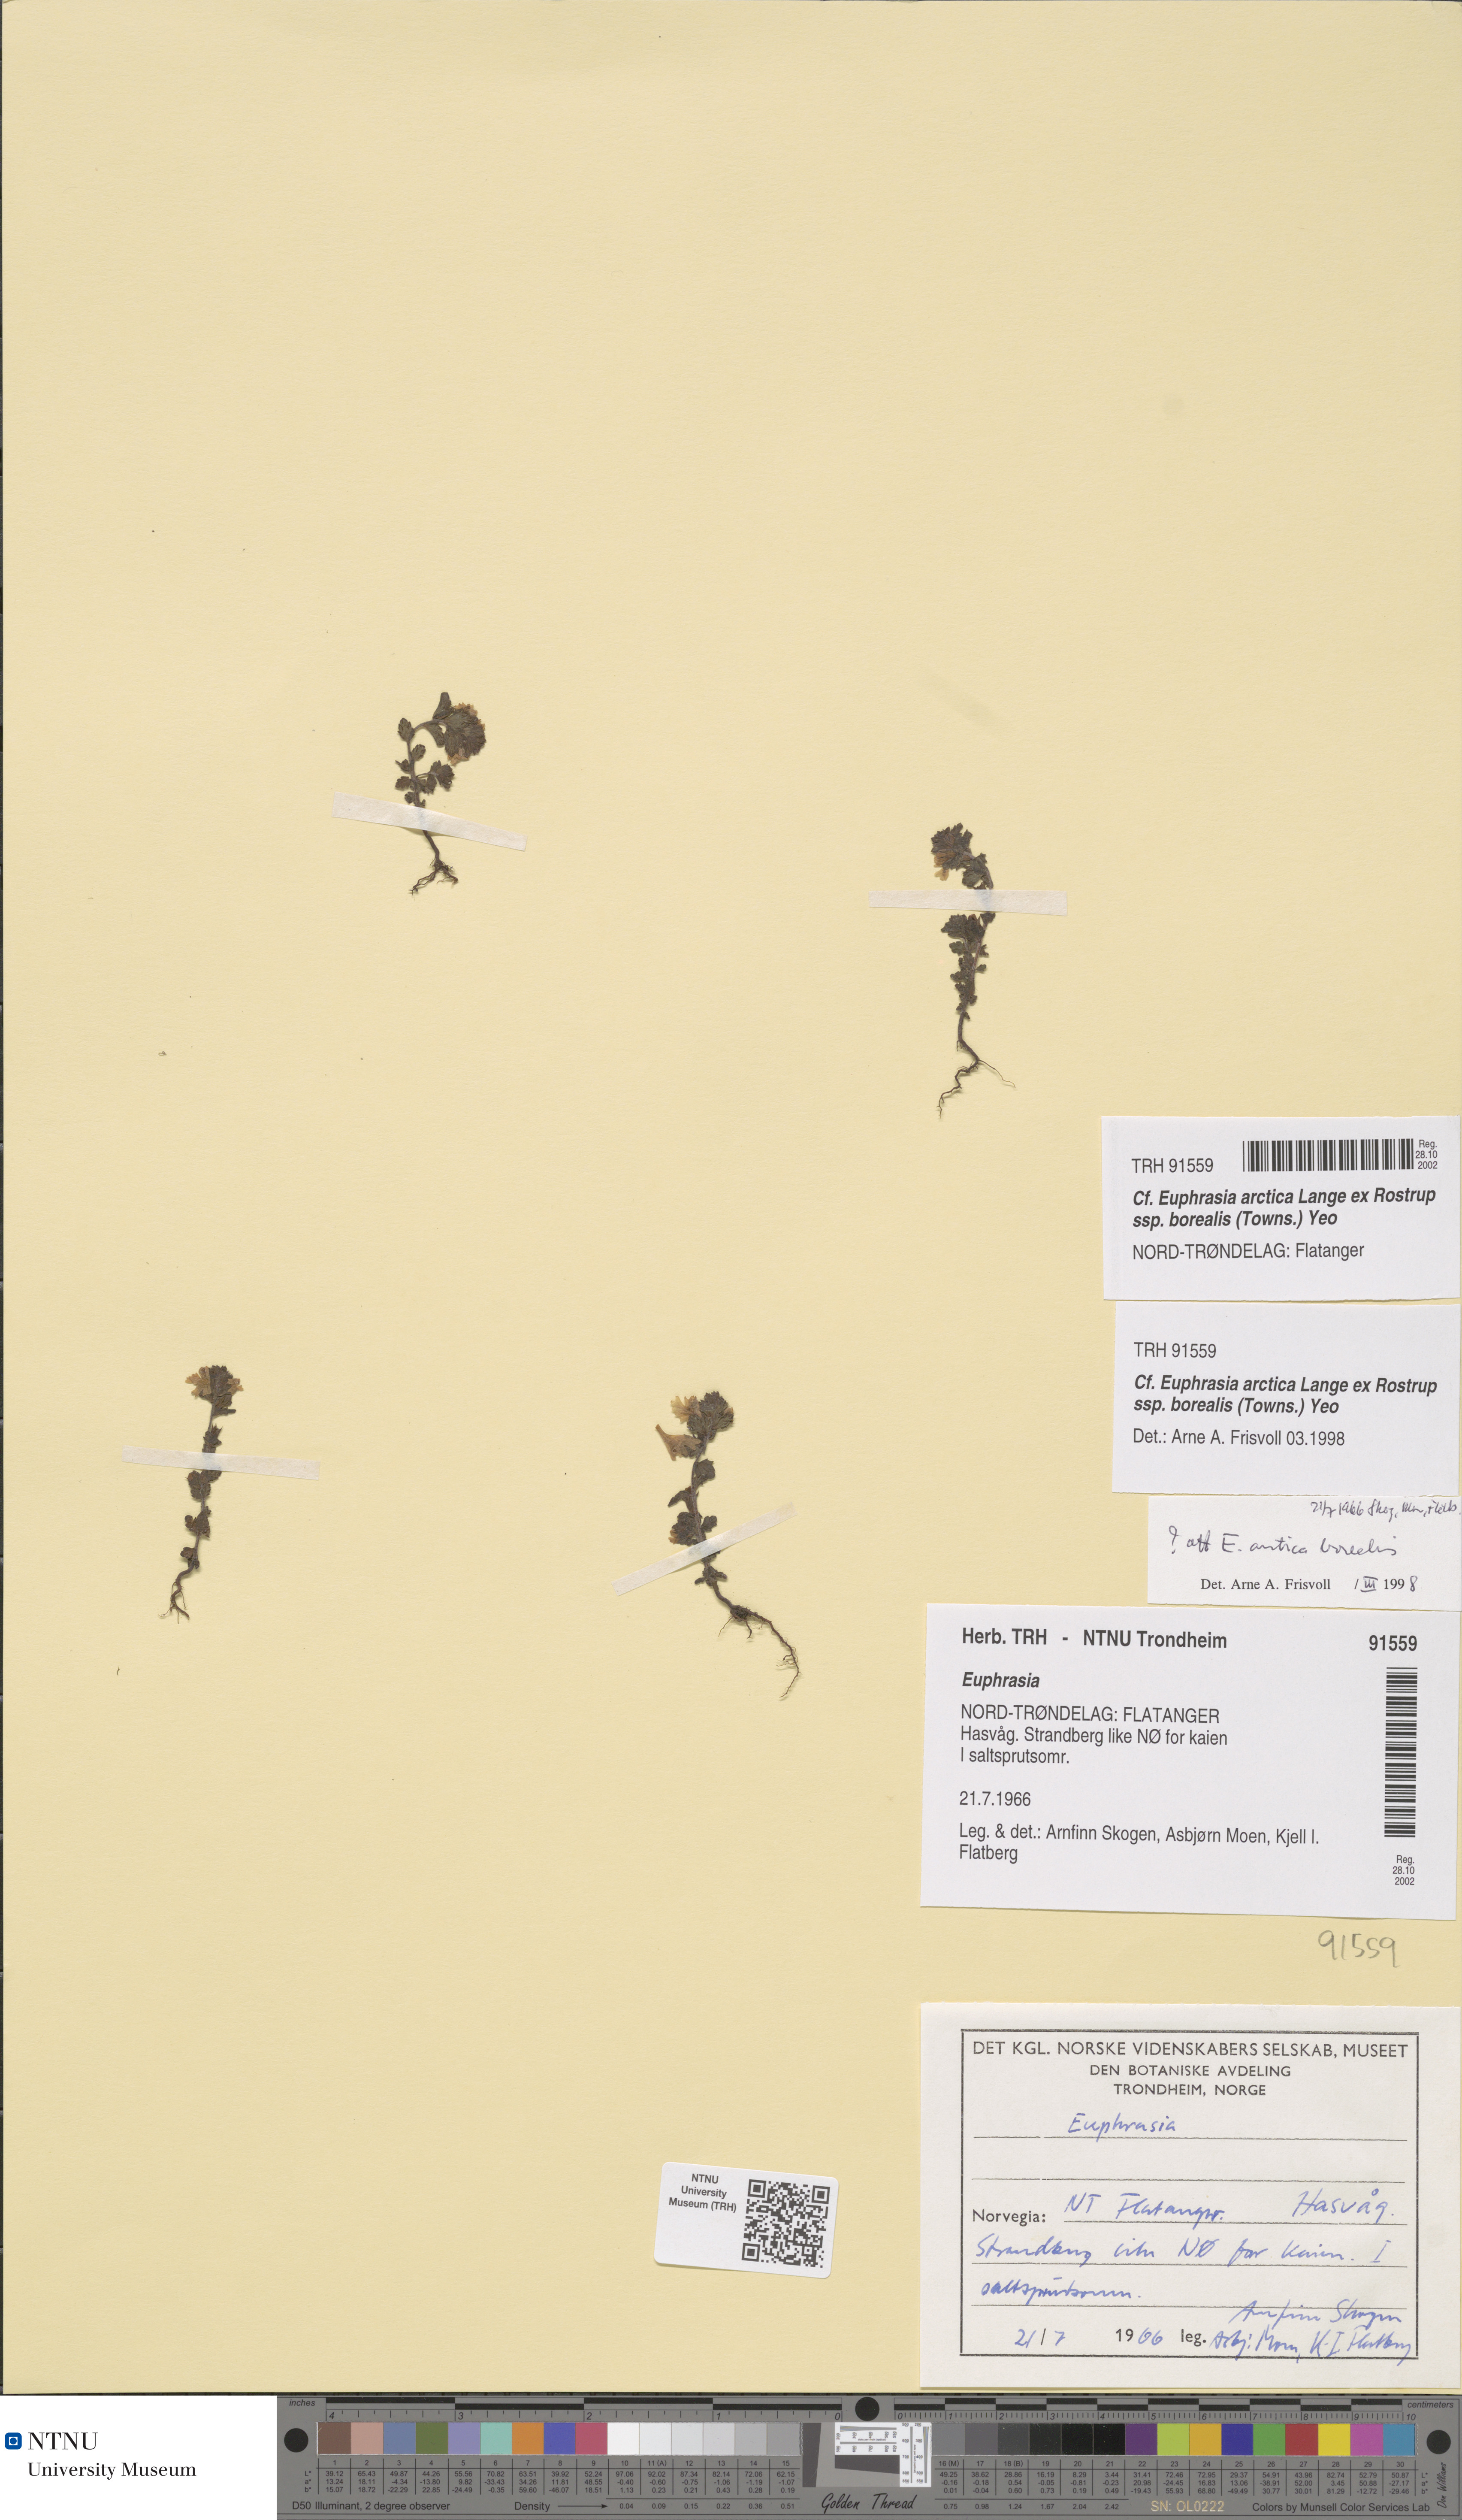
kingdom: Plantae
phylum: Tracheophyta
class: Magnoliopsida
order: Lamiales
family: Orobanchaceae
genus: Euphrasia
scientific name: Euphrasia arctica
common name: An eyebright
